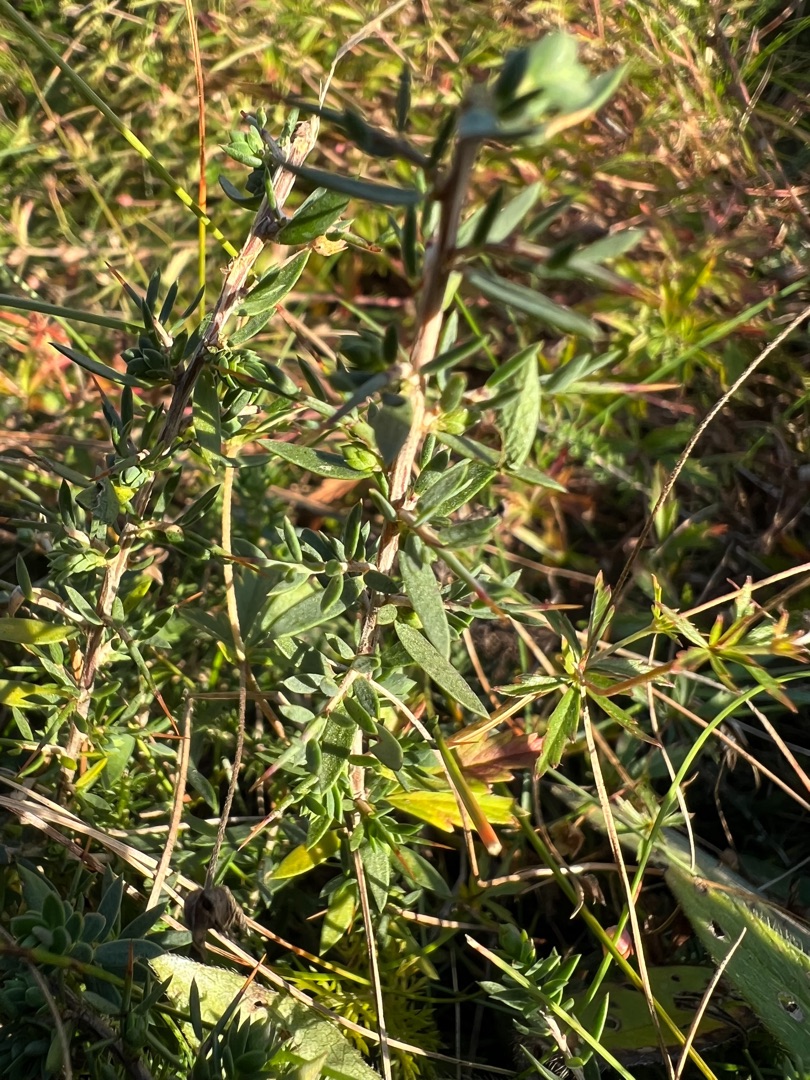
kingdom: Plantae
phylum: Tracheophyta
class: Magnoliopsida
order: Fabales
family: Fabaceae
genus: Genista
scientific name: Genista anglica
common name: Engelsk visse
